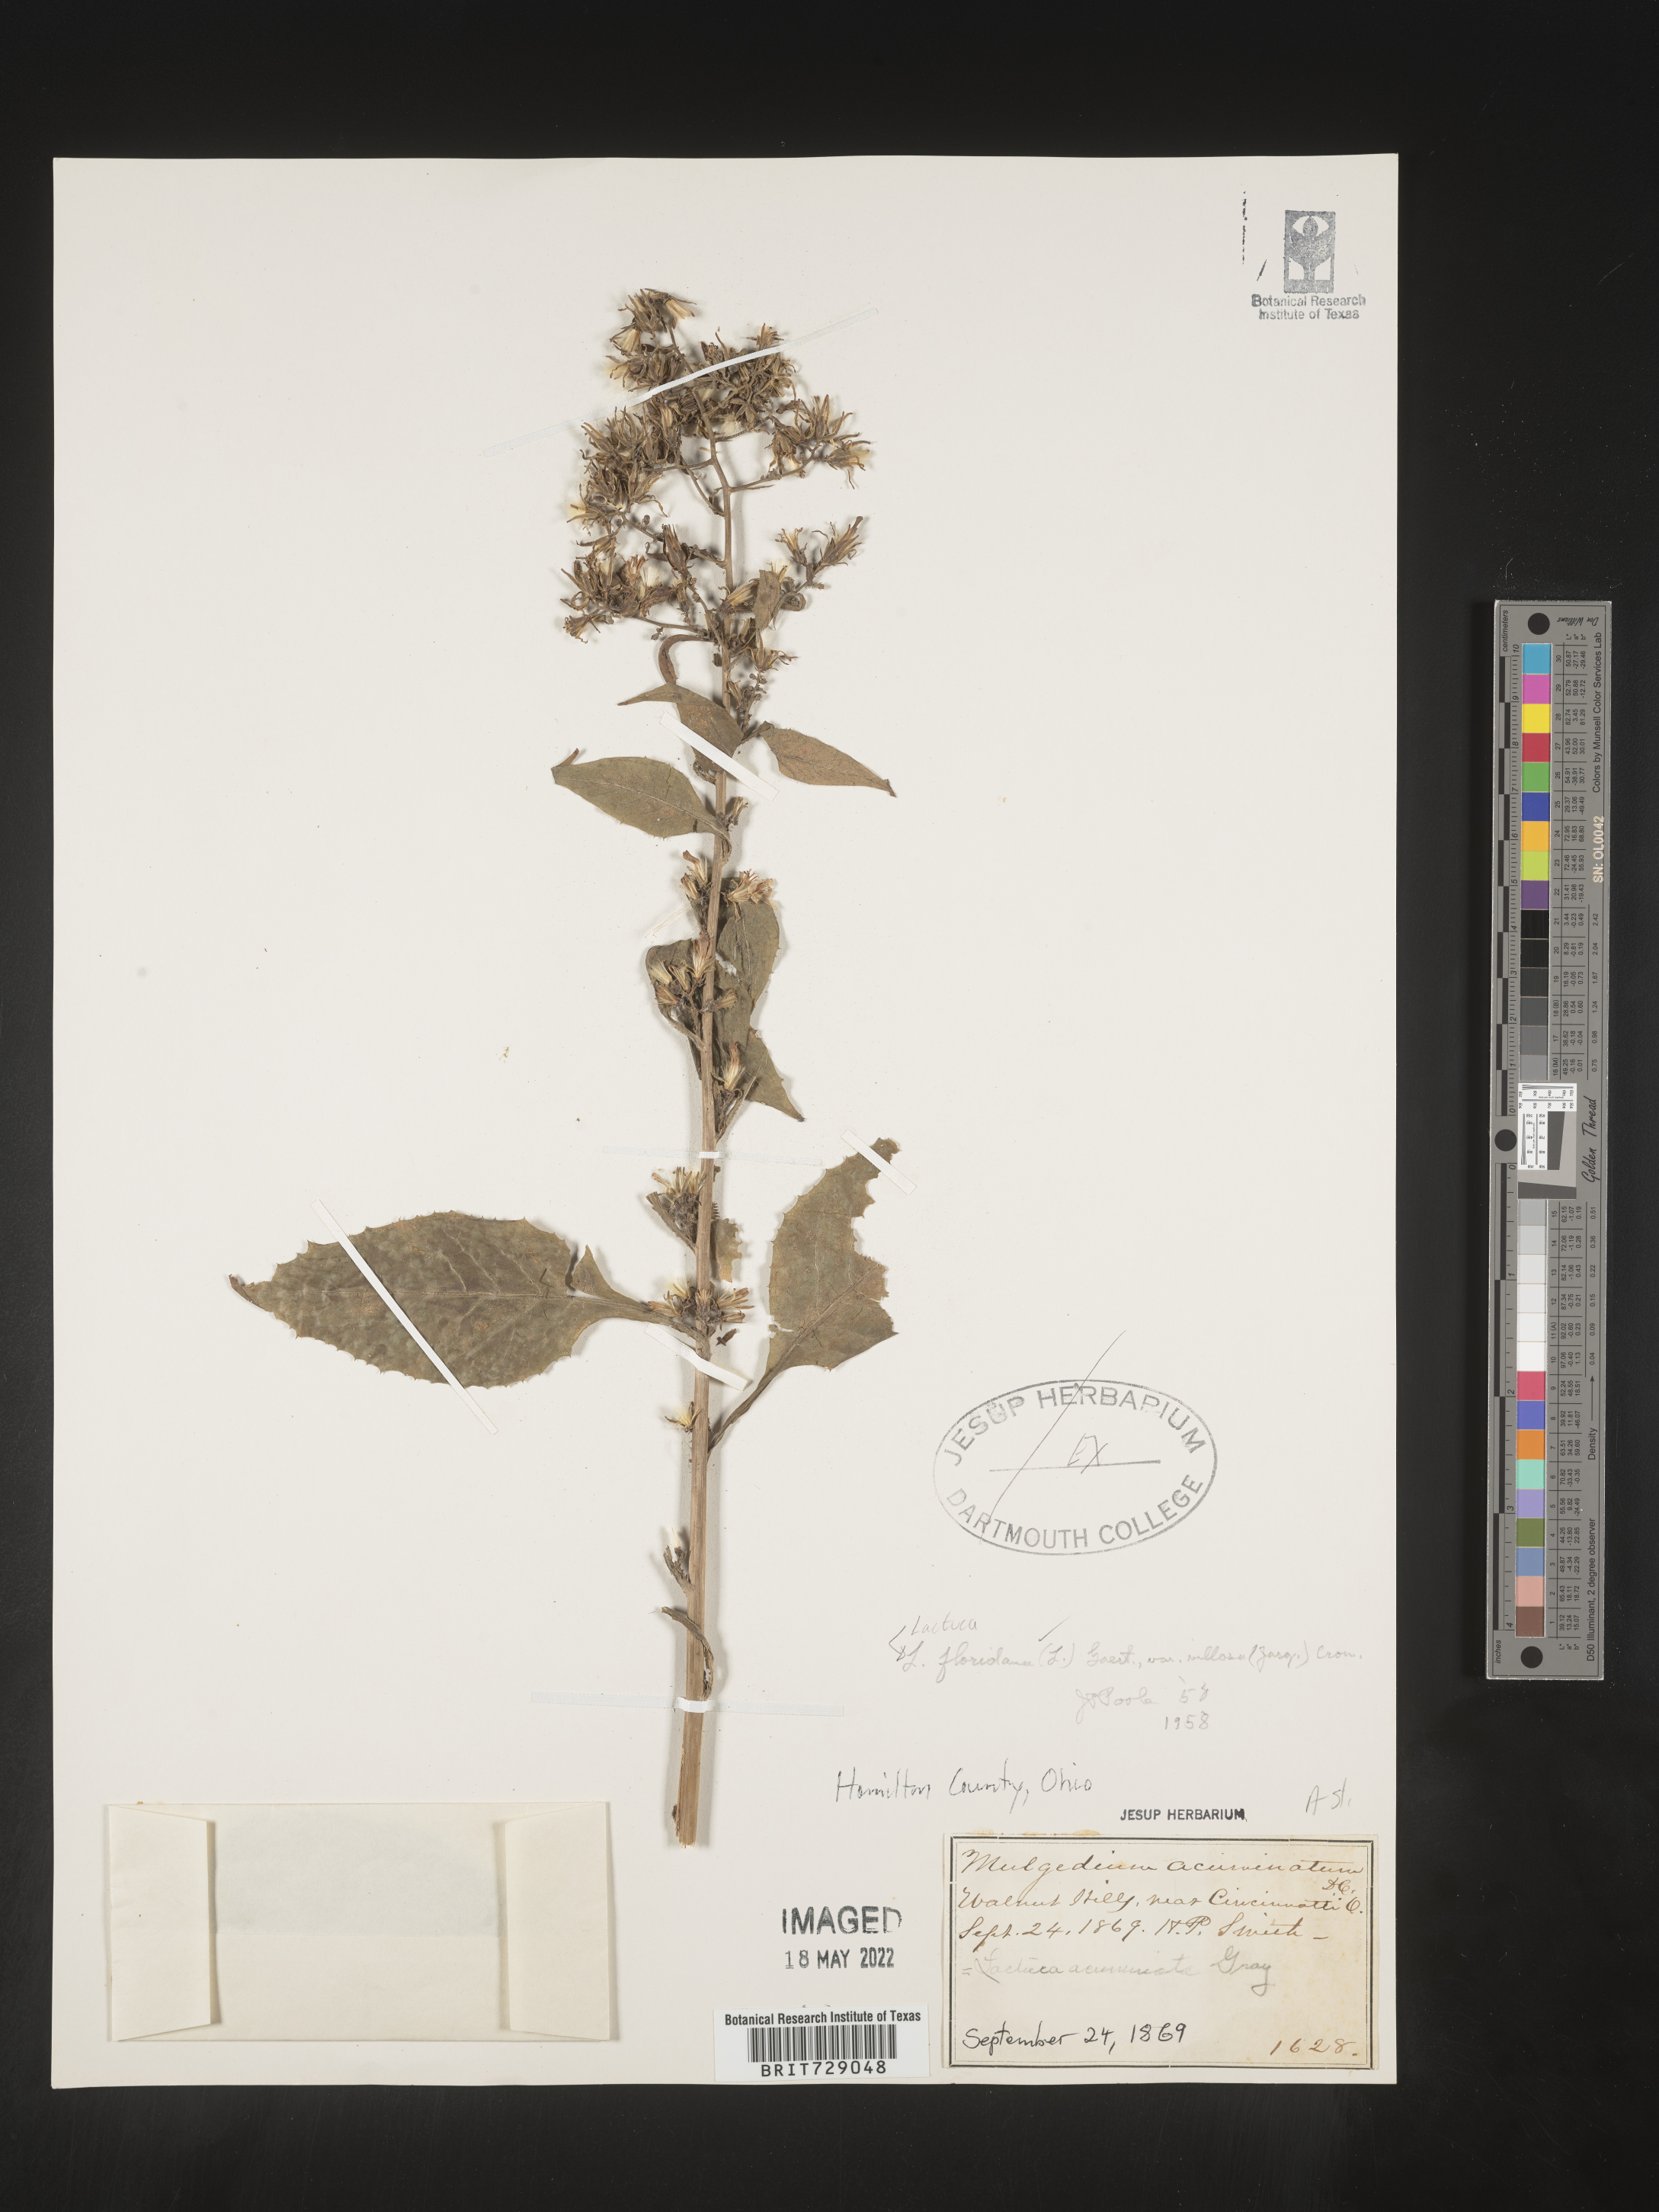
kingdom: Plantae
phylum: Tracheophyta
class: Magnoliopsida
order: Asterales
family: Asteraceae
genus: Lactuca
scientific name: Lactuca floridana
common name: Woodland lettuce
